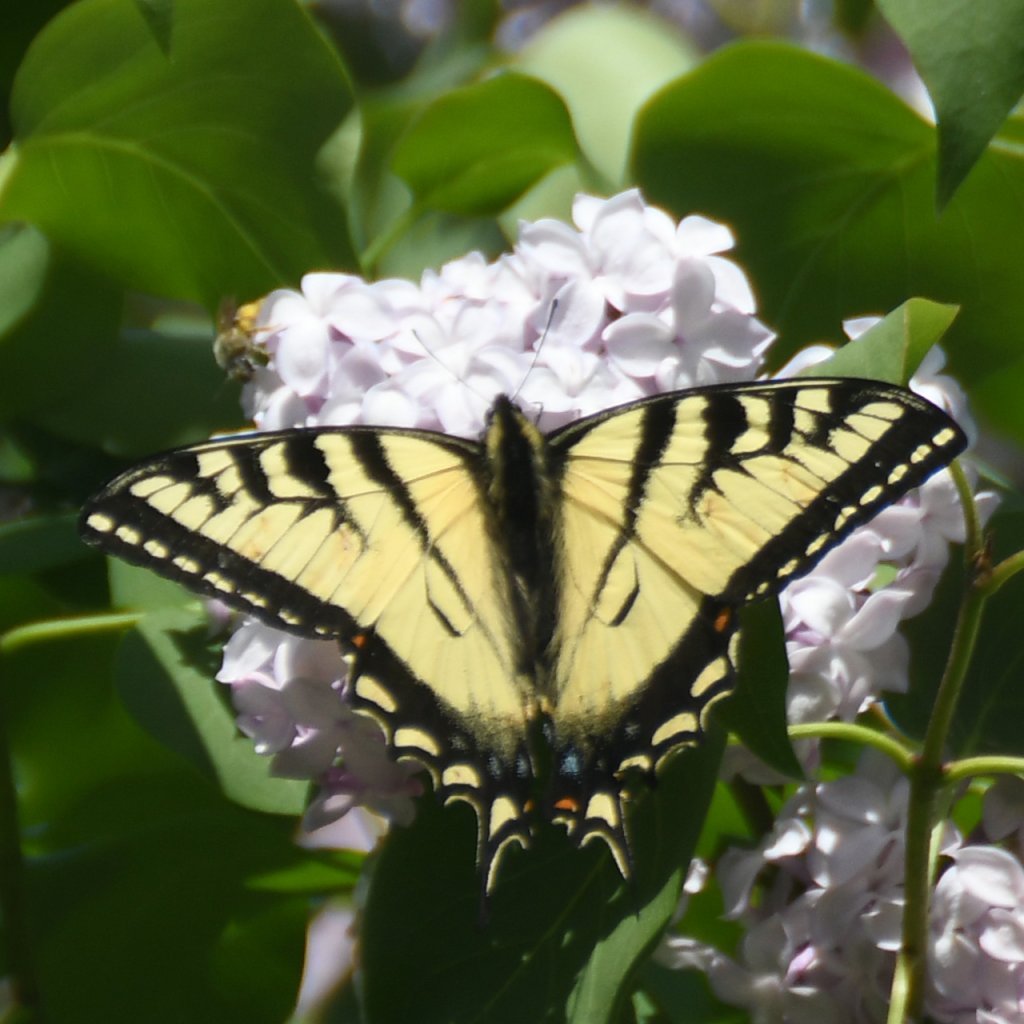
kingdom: Animalia
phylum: Arthropoda
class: Insecta
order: Lepidoptera
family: Papilionidae
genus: Pterourus
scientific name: Pterourus canadensis
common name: Canadian Tiger Swallowtail
